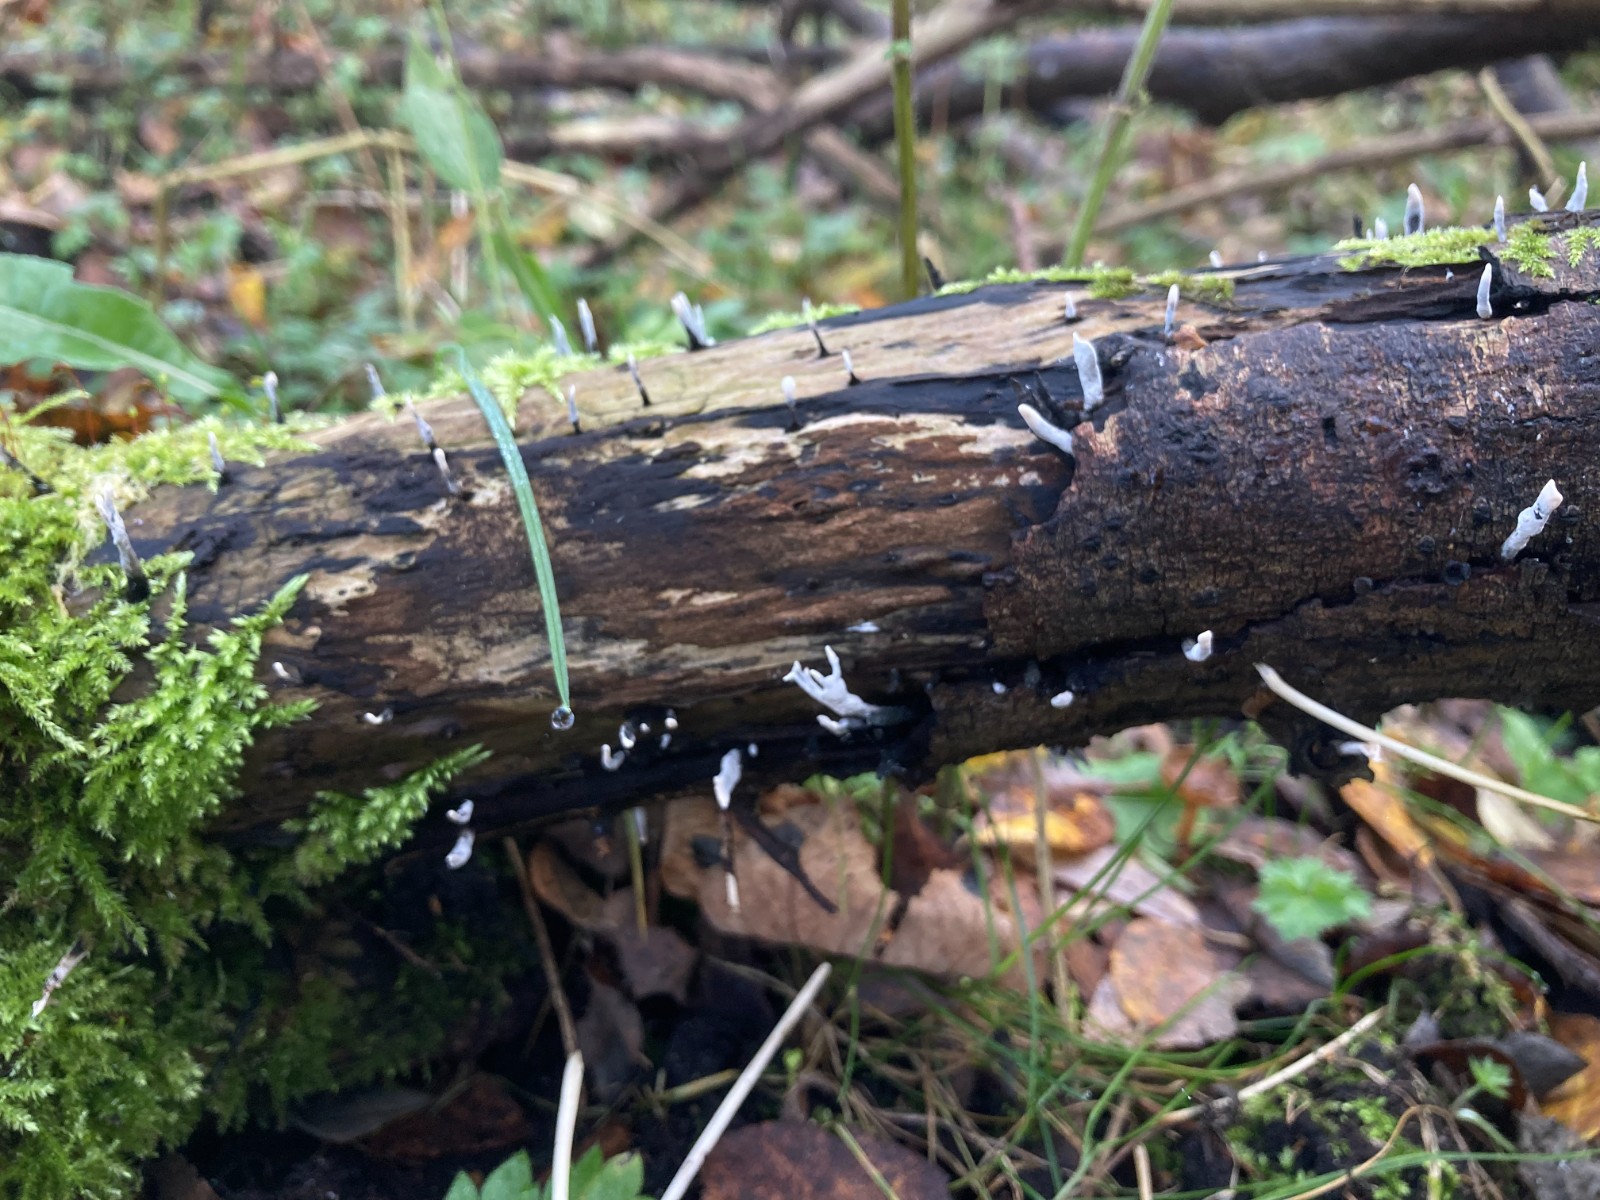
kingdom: Fungi
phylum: Ascomycota
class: Sordariomycetes
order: Xylariales
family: Xylariaceae
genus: Xylaria
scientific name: Xylaria hypoxylon
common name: grenet stødsvamp
